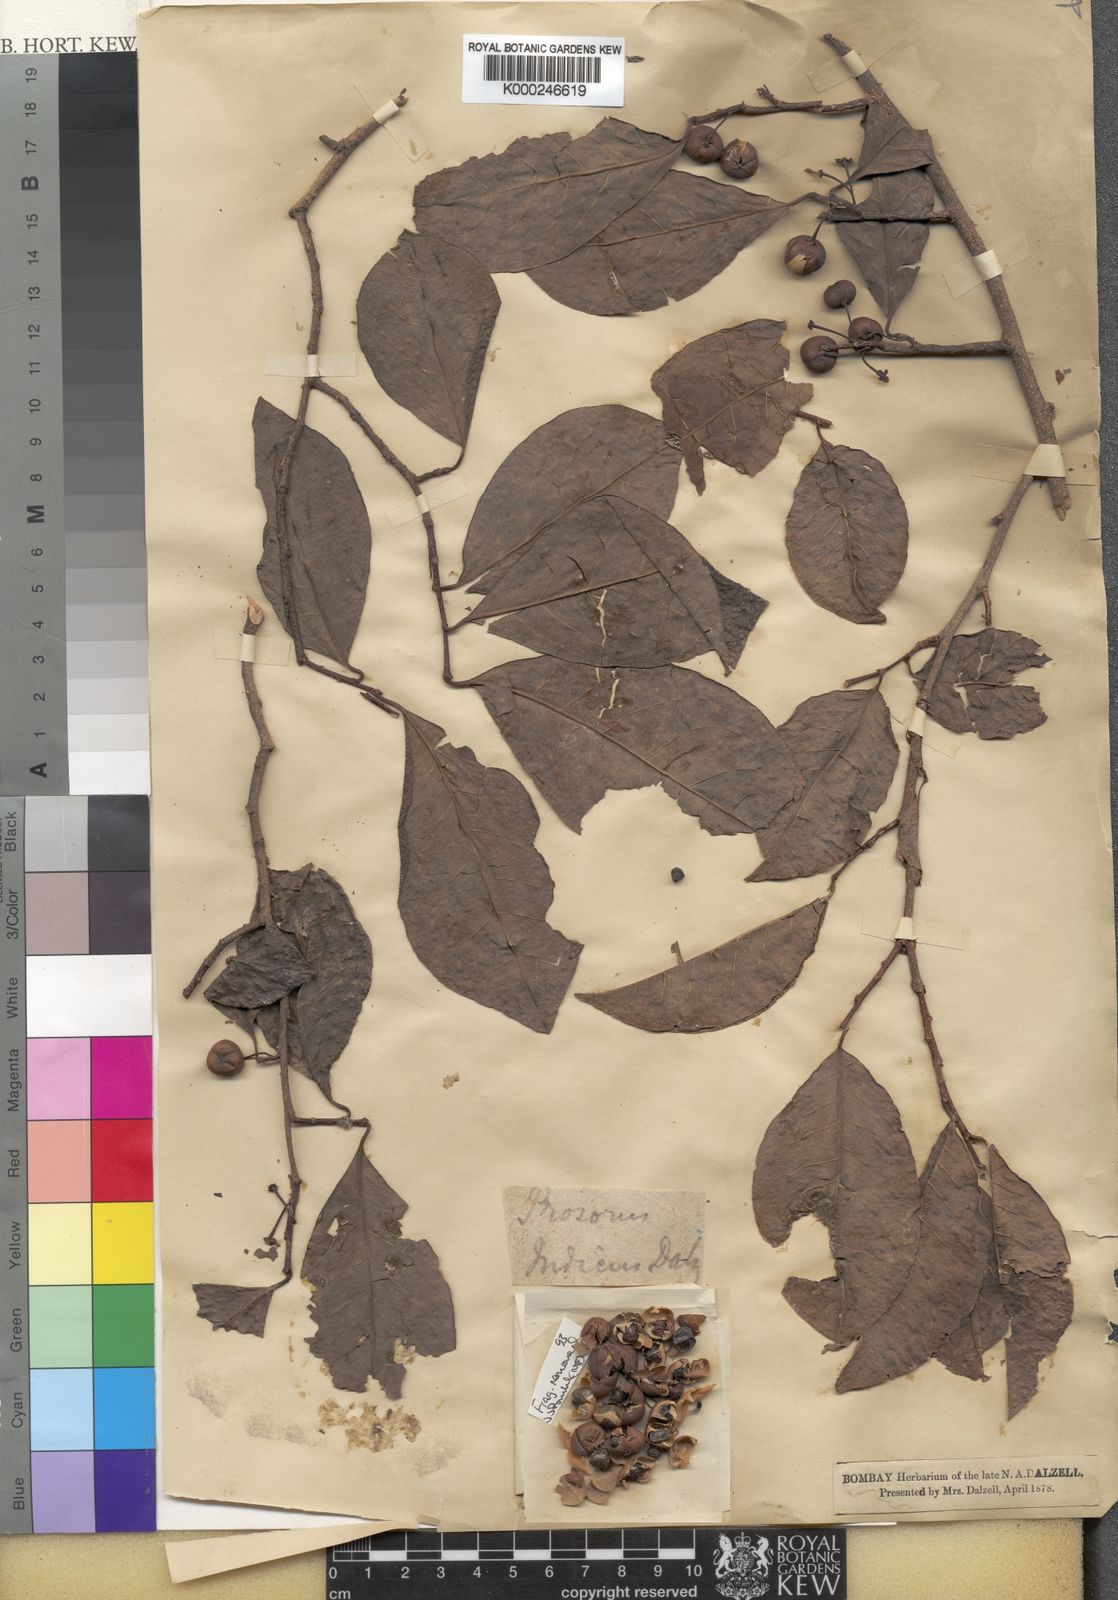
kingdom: Plantae
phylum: Tracheophyta
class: Magnoliopsida
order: Malpighiales
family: Phyllanthaceae
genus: Margaritaria
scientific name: Margaritaria indica
